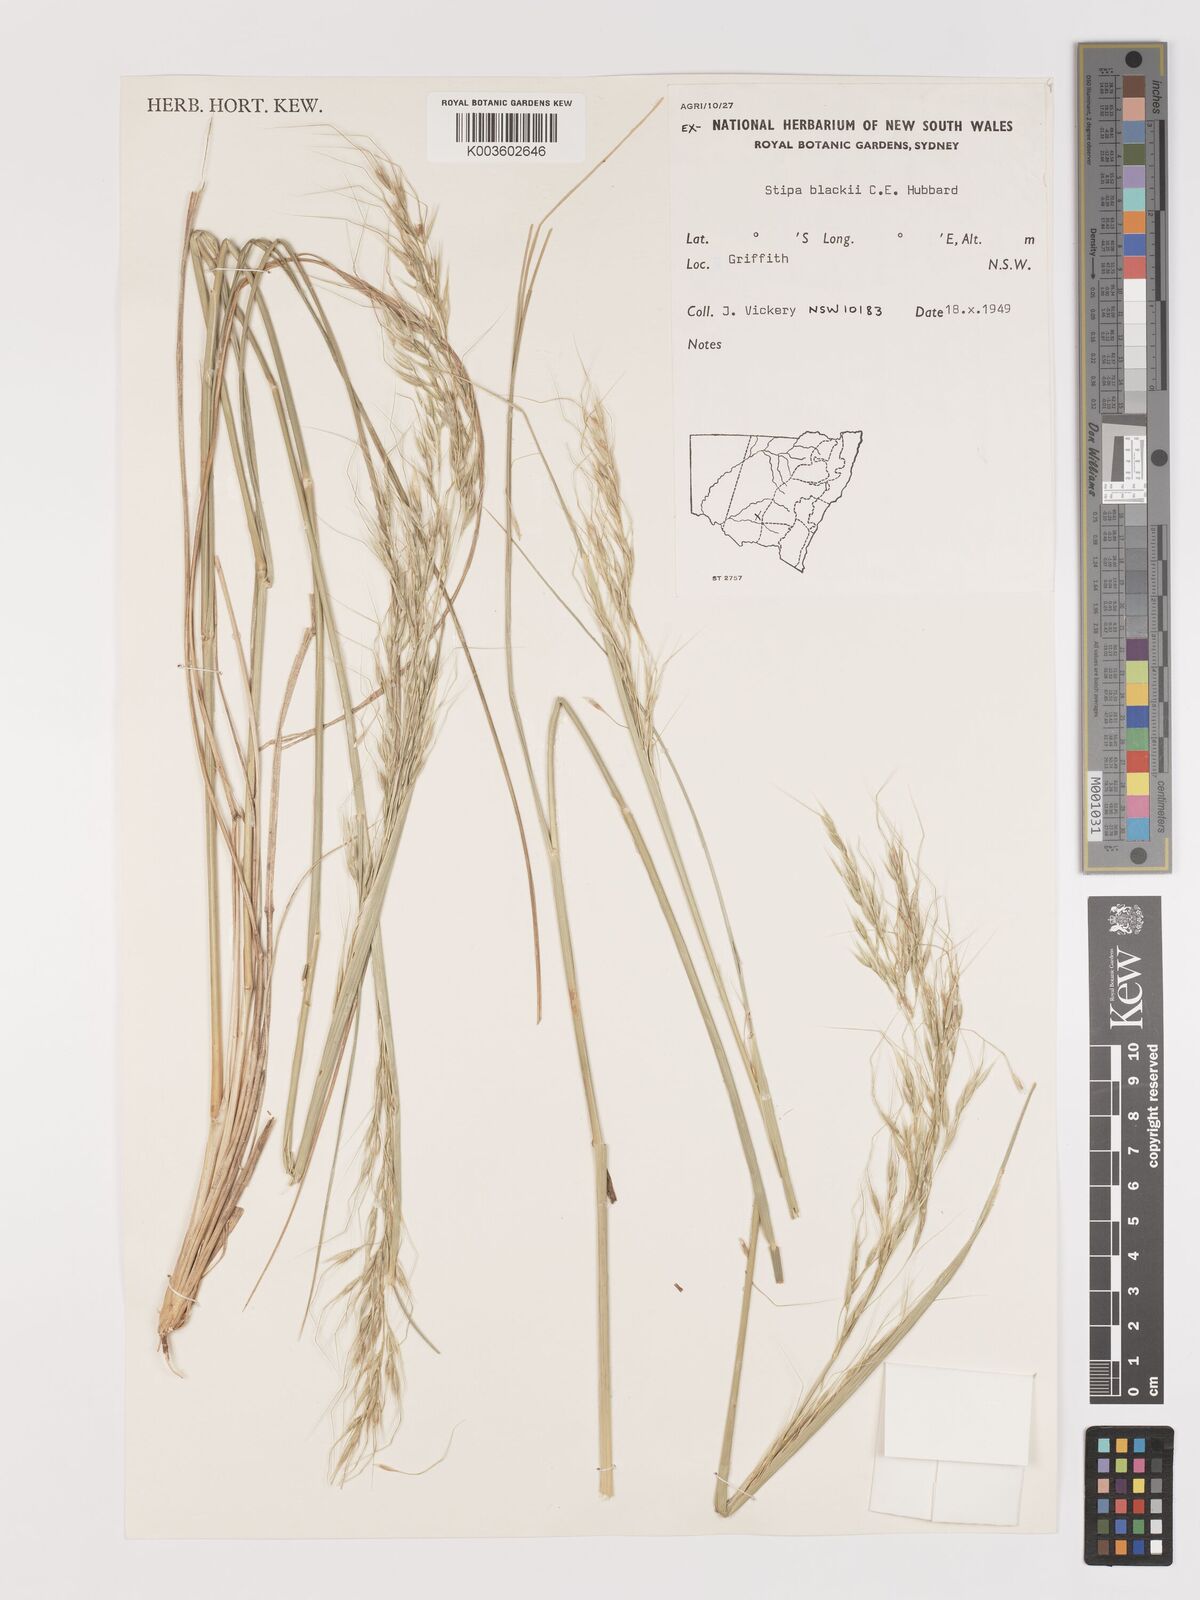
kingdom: Plantae
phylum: Tracheophyta
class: Liliopsida
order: Poales
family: Poaceae
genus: Austrostipa
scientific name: Austrostipa blackii
